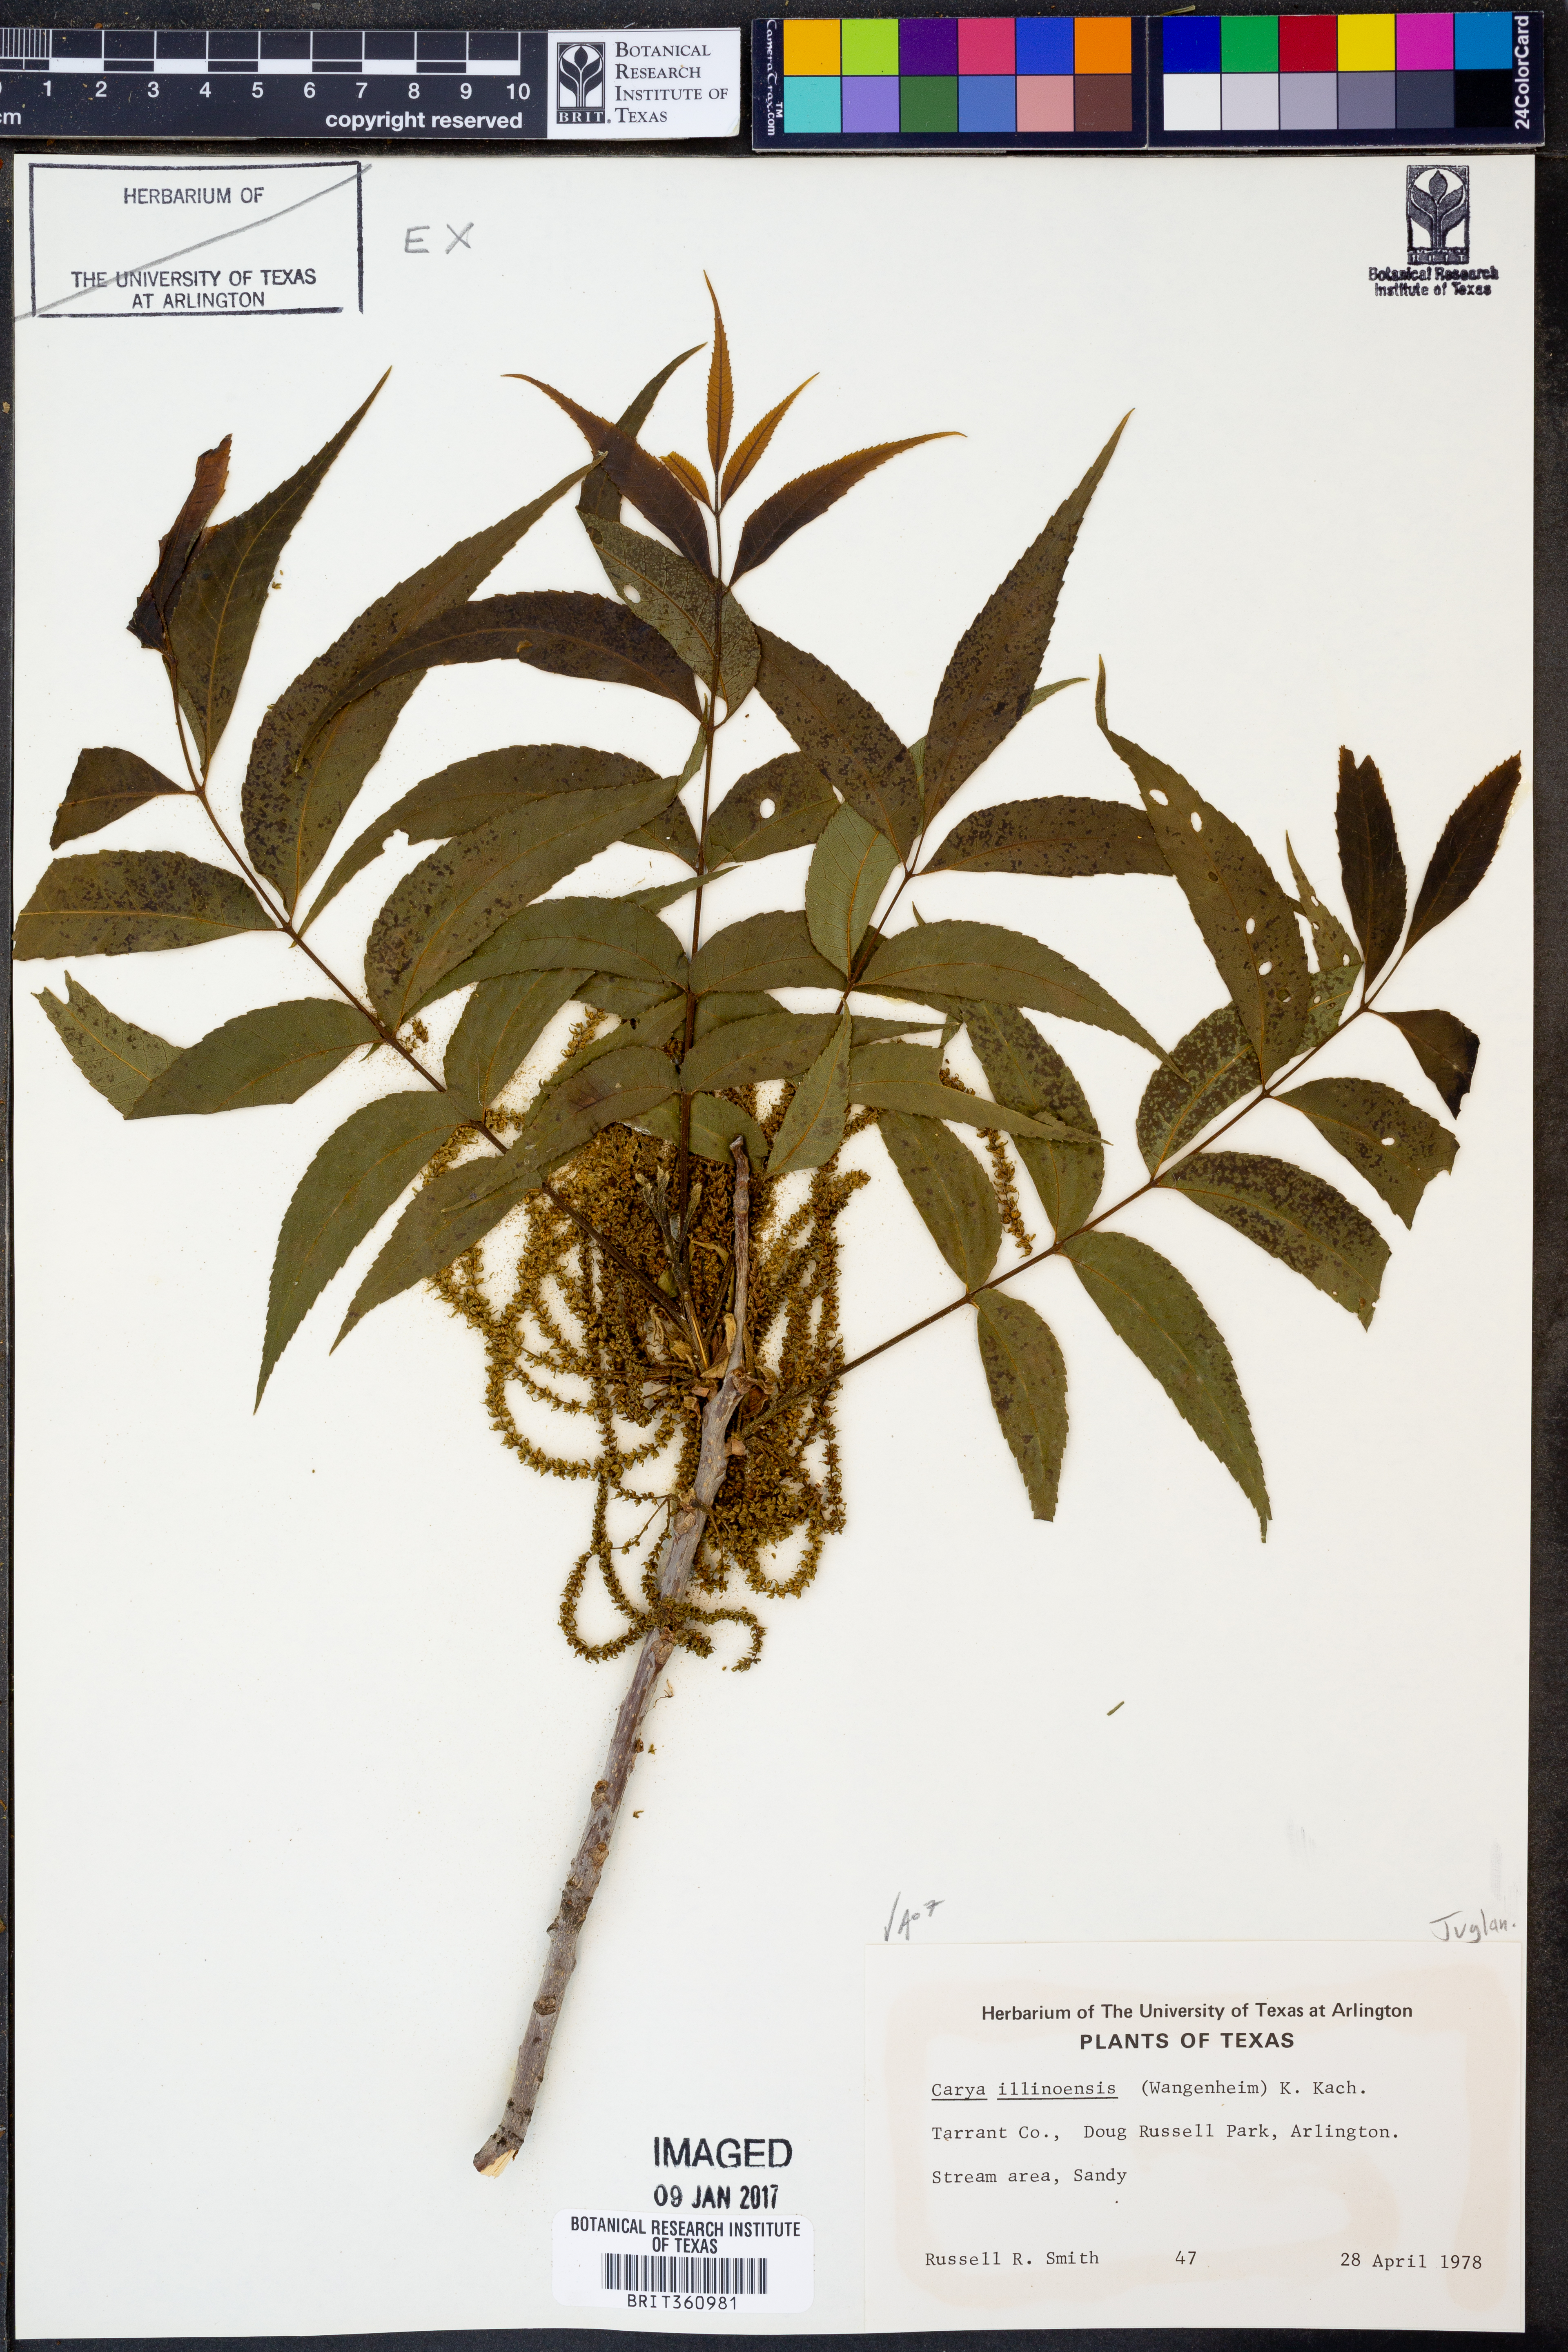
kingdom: Plantae
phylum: Tracheophyta
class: Magnoliopsida
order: Fagales
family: Juglandaceae
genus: Carya
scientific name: Carya illinoinensis
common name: Pecan
